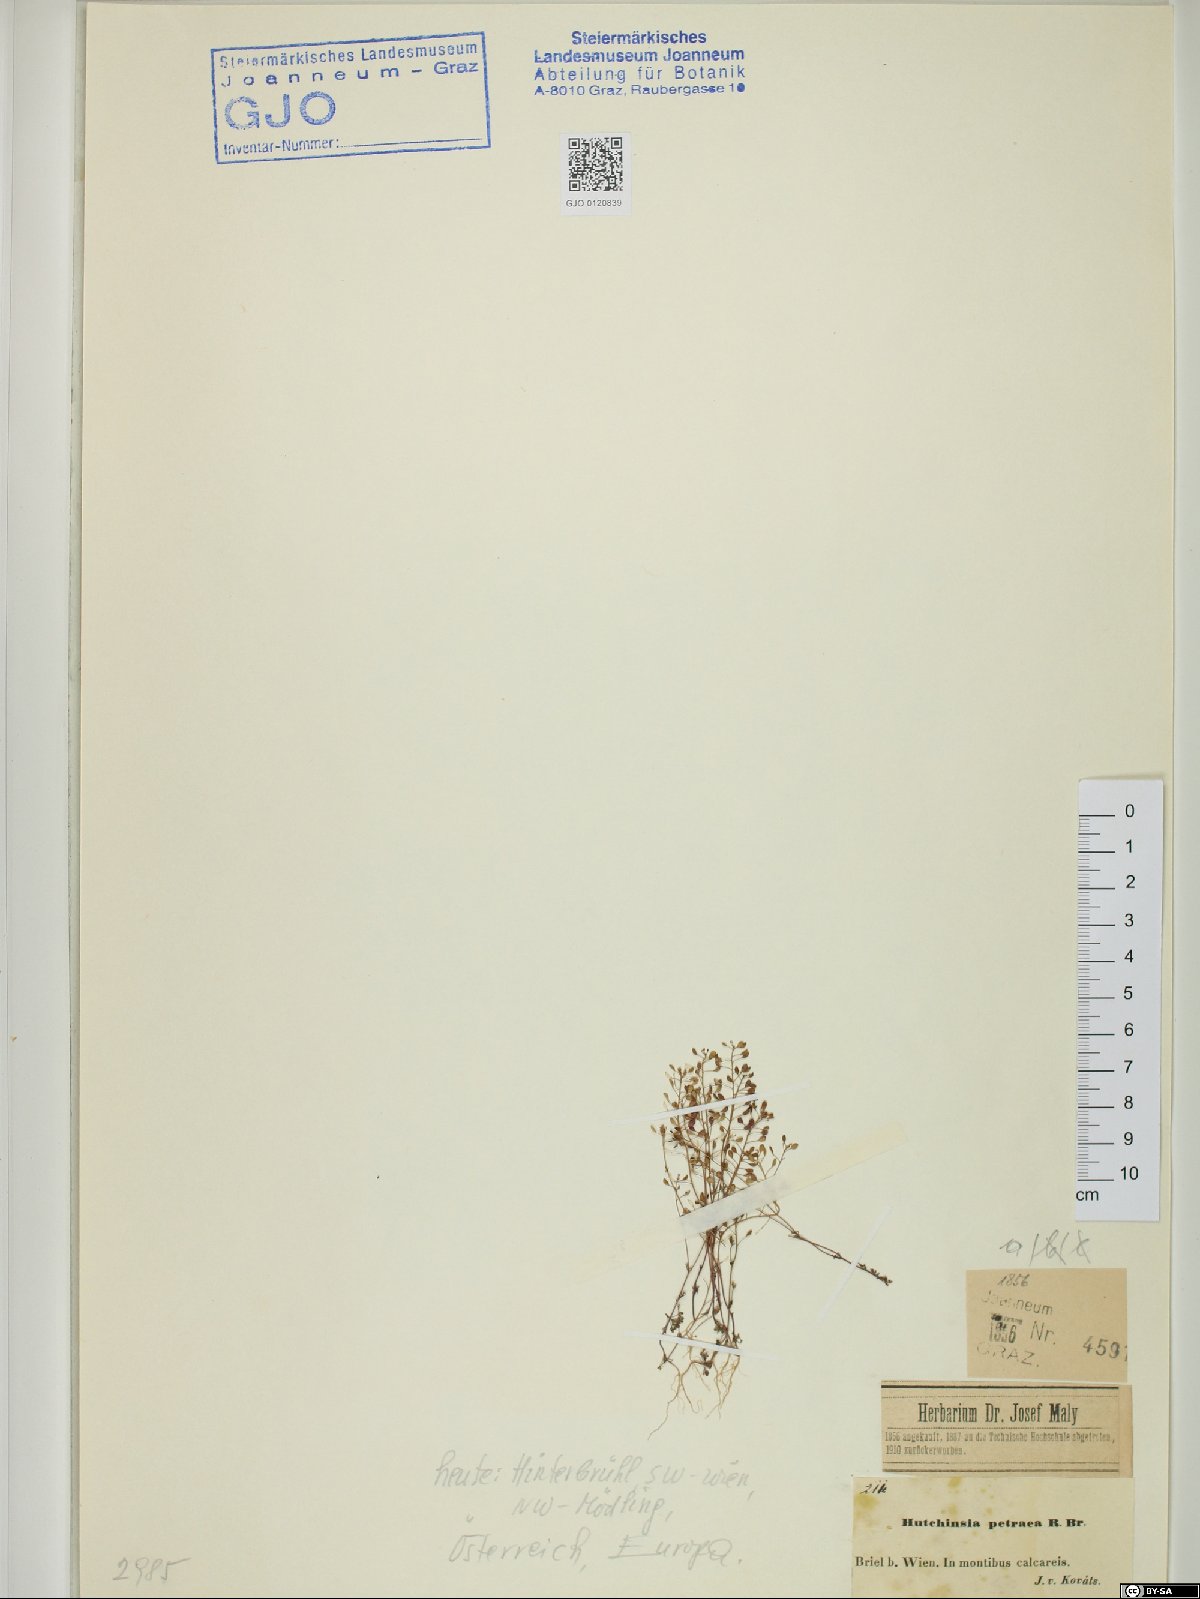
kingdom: Plantae
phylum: Tracheophyta
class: Magnoliopsida
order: Brassicales
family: Brassicaceae
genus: Hornungia
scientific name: Hornungia petraea
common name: Hutchinsia
